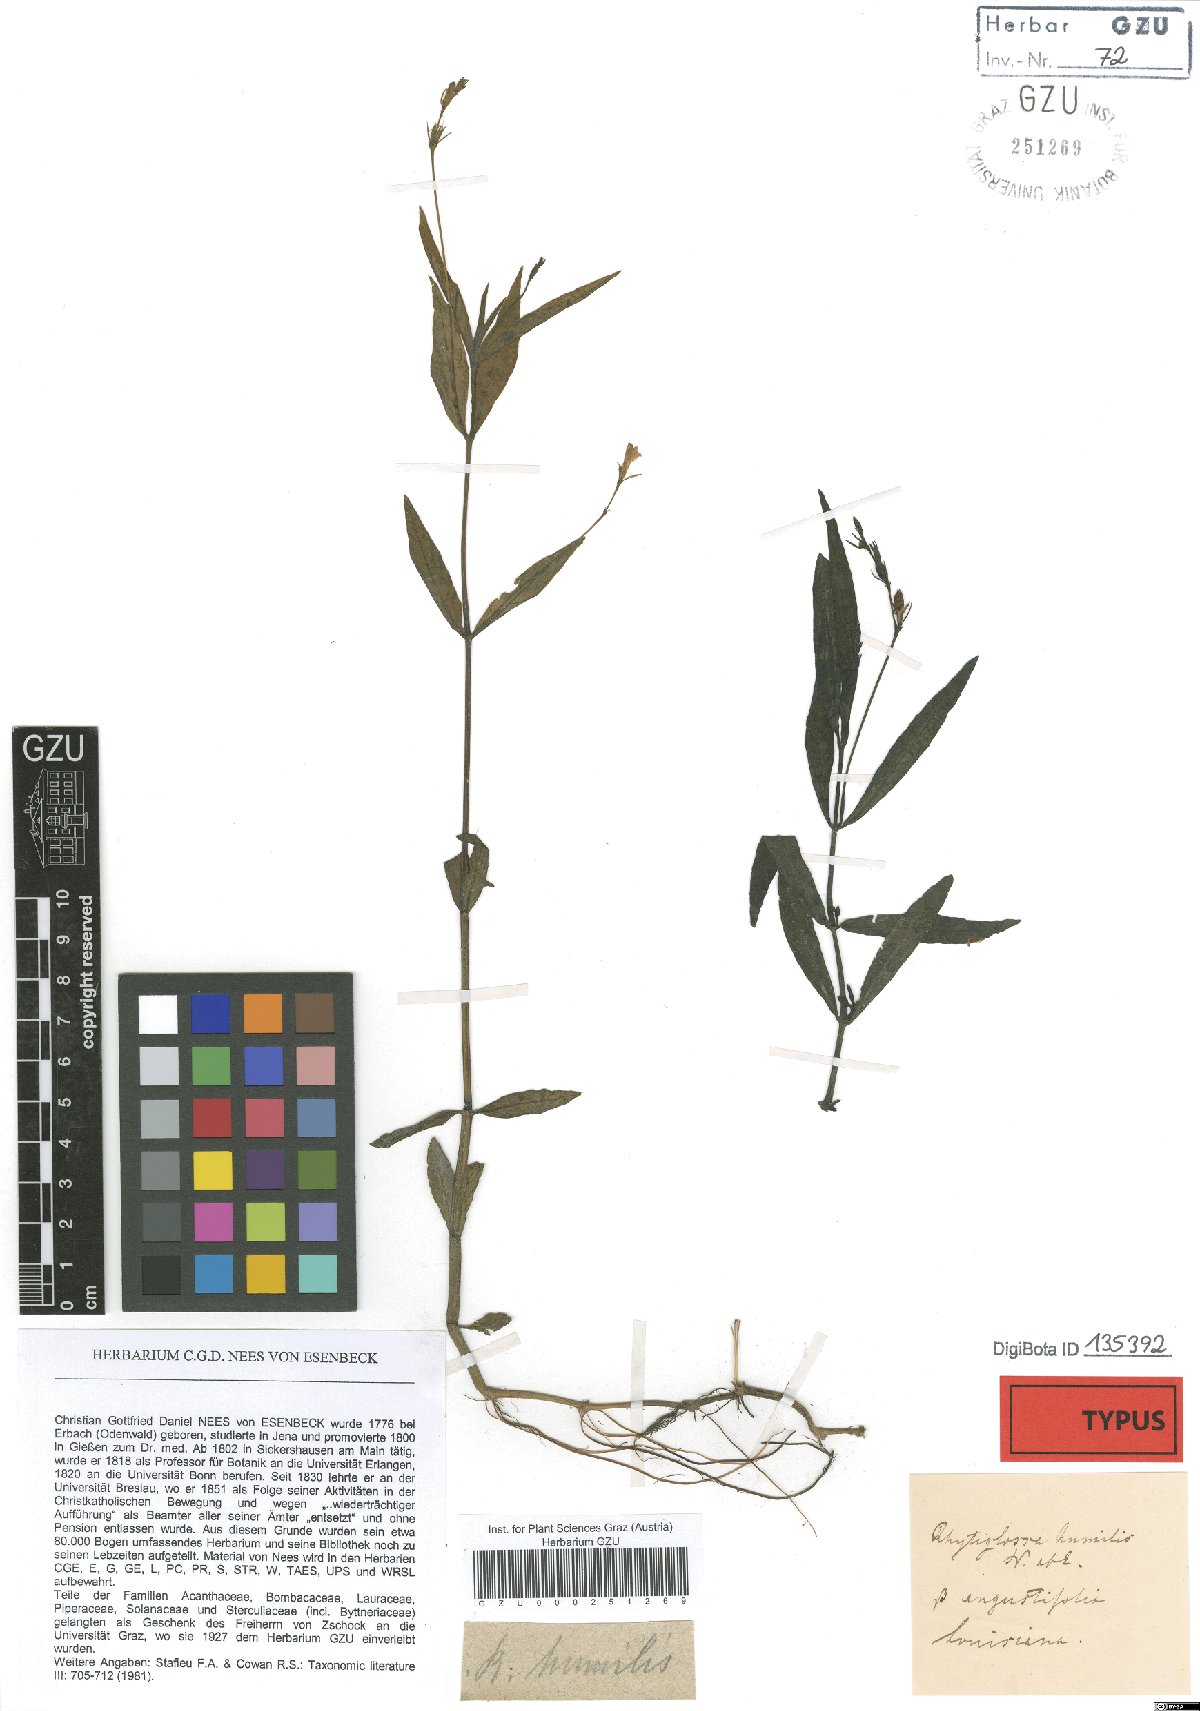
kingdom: Plantae
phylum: Tracheophyta
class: Magnoliopsida
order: Lamiales
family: Acanthaceae
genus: Dianthera
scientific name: Dianthera ovata
